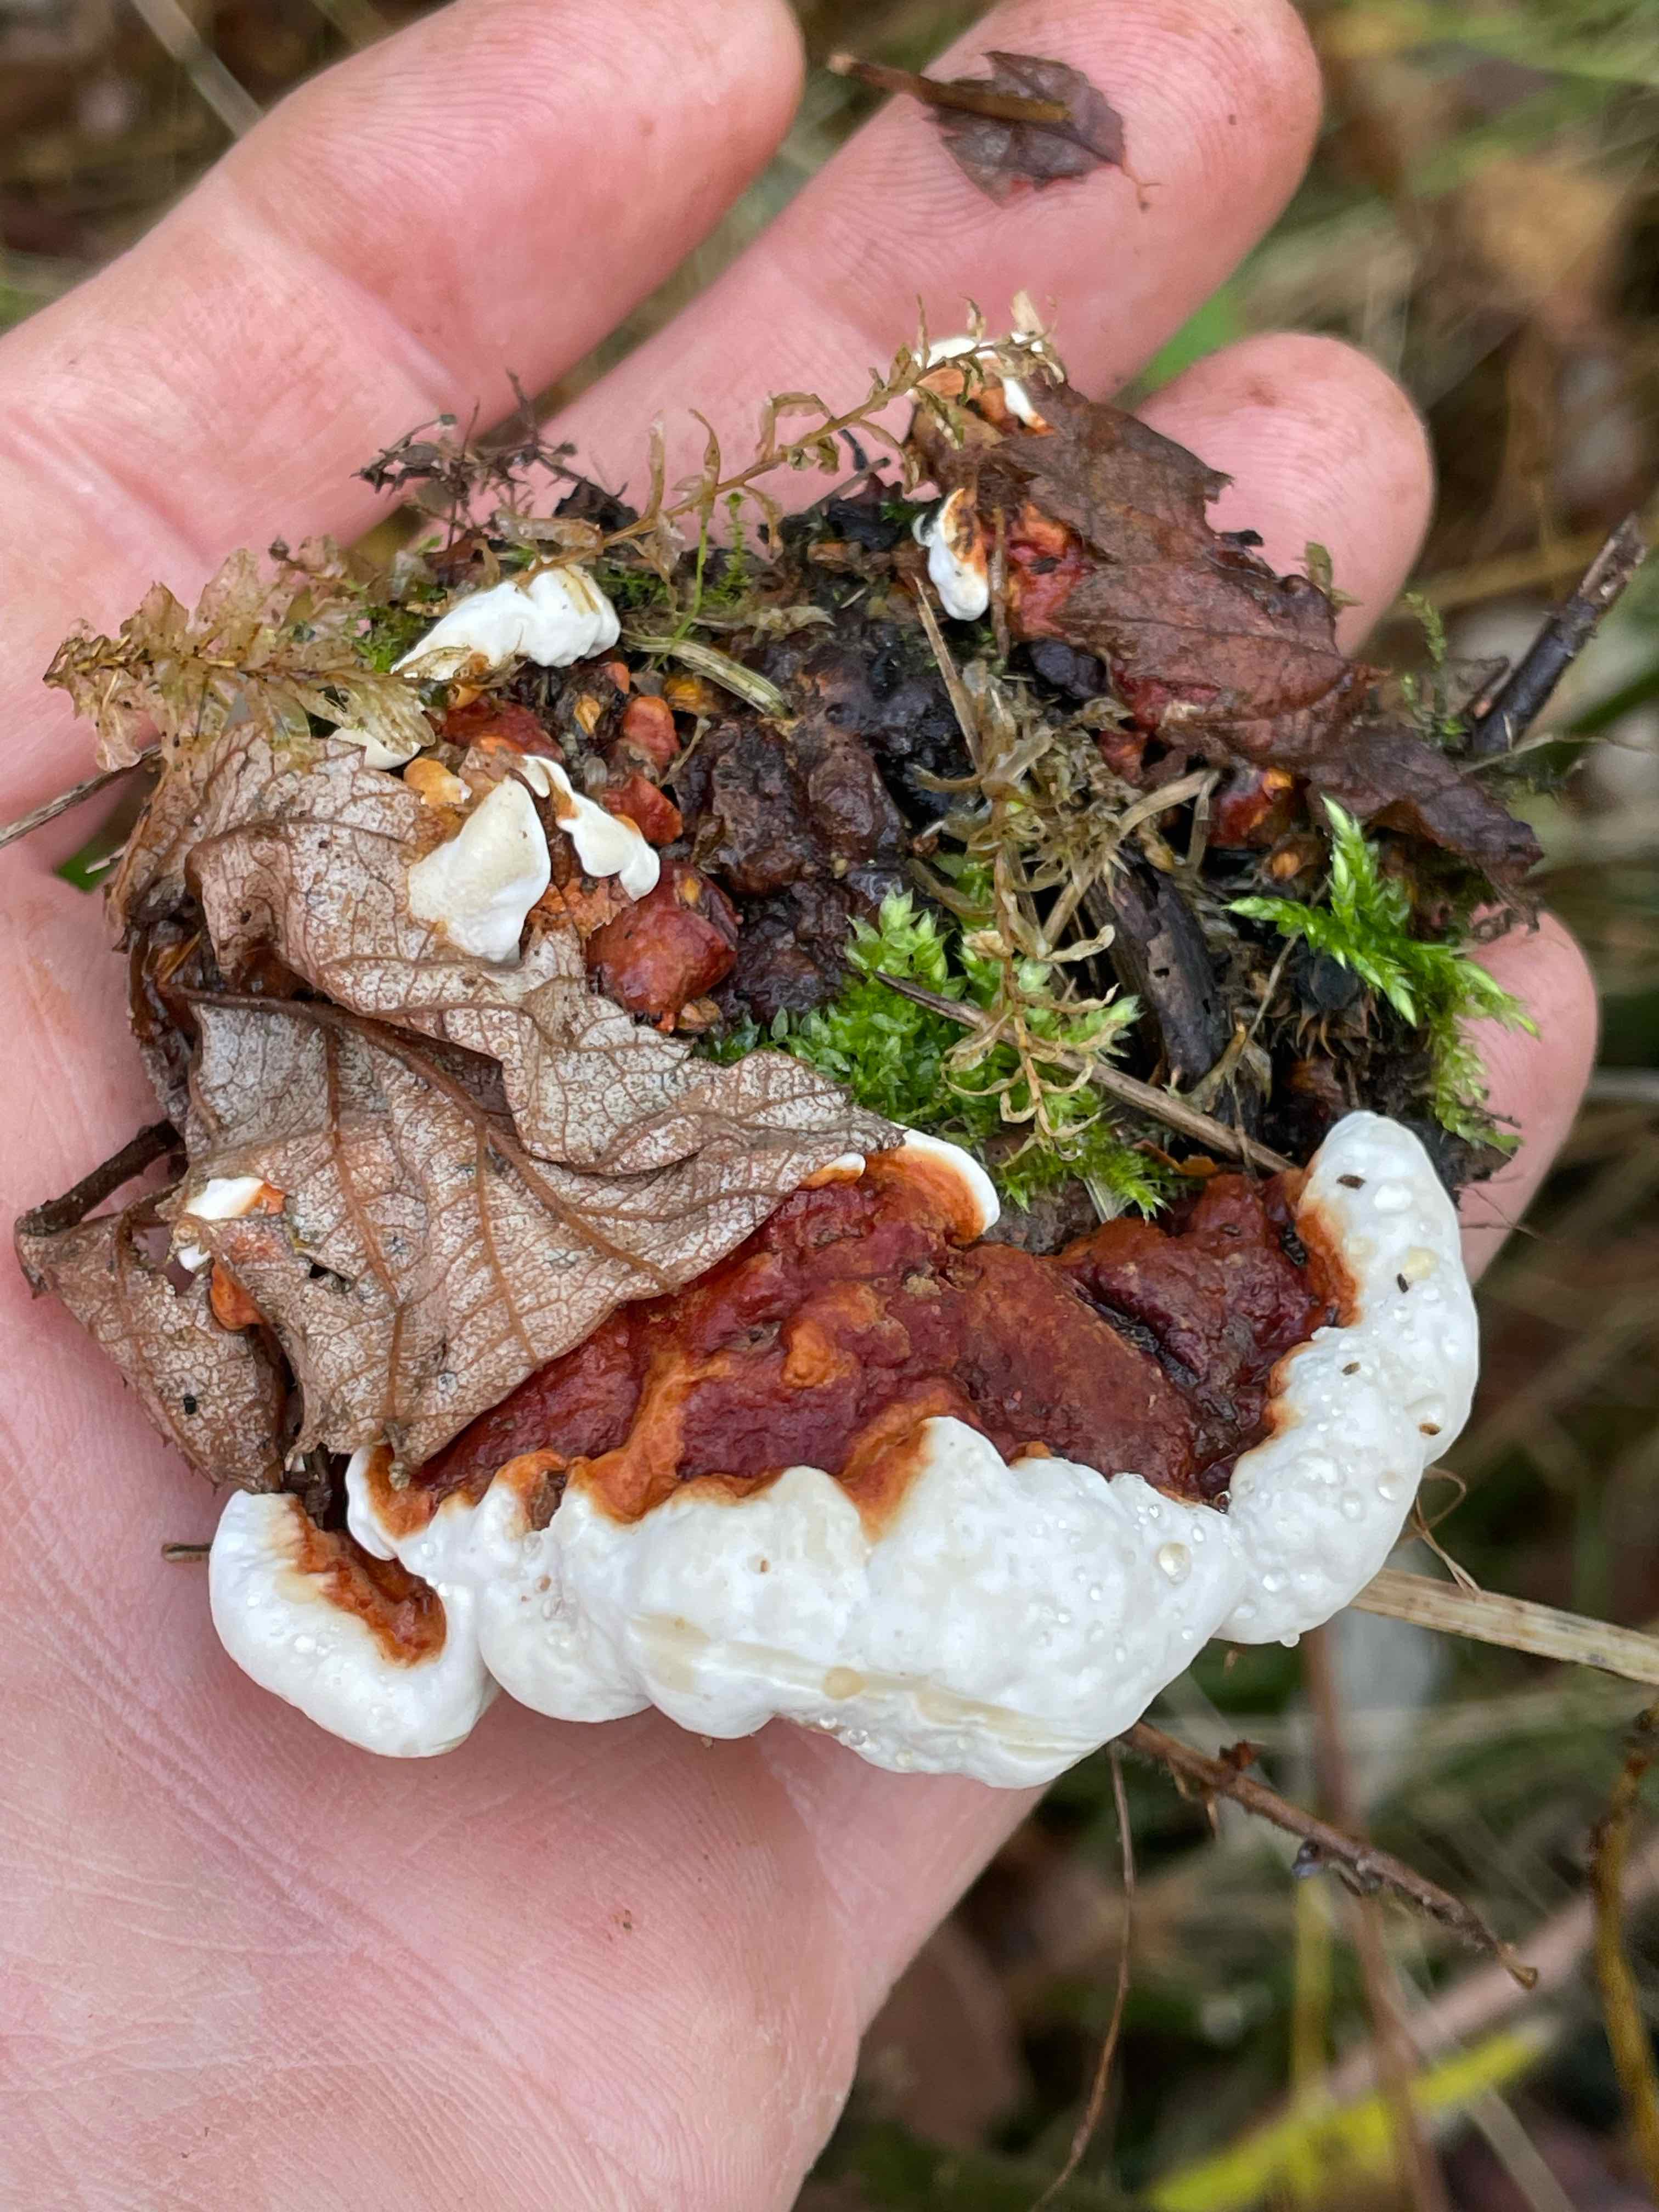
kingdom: Fungi
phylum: Basidiomycota
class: Agaricomycetes
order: Russulales
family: Bondarzewiaceae
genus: Heterobasidion
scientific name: Heterobasidion annosum
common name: almindelig rodfordærver
